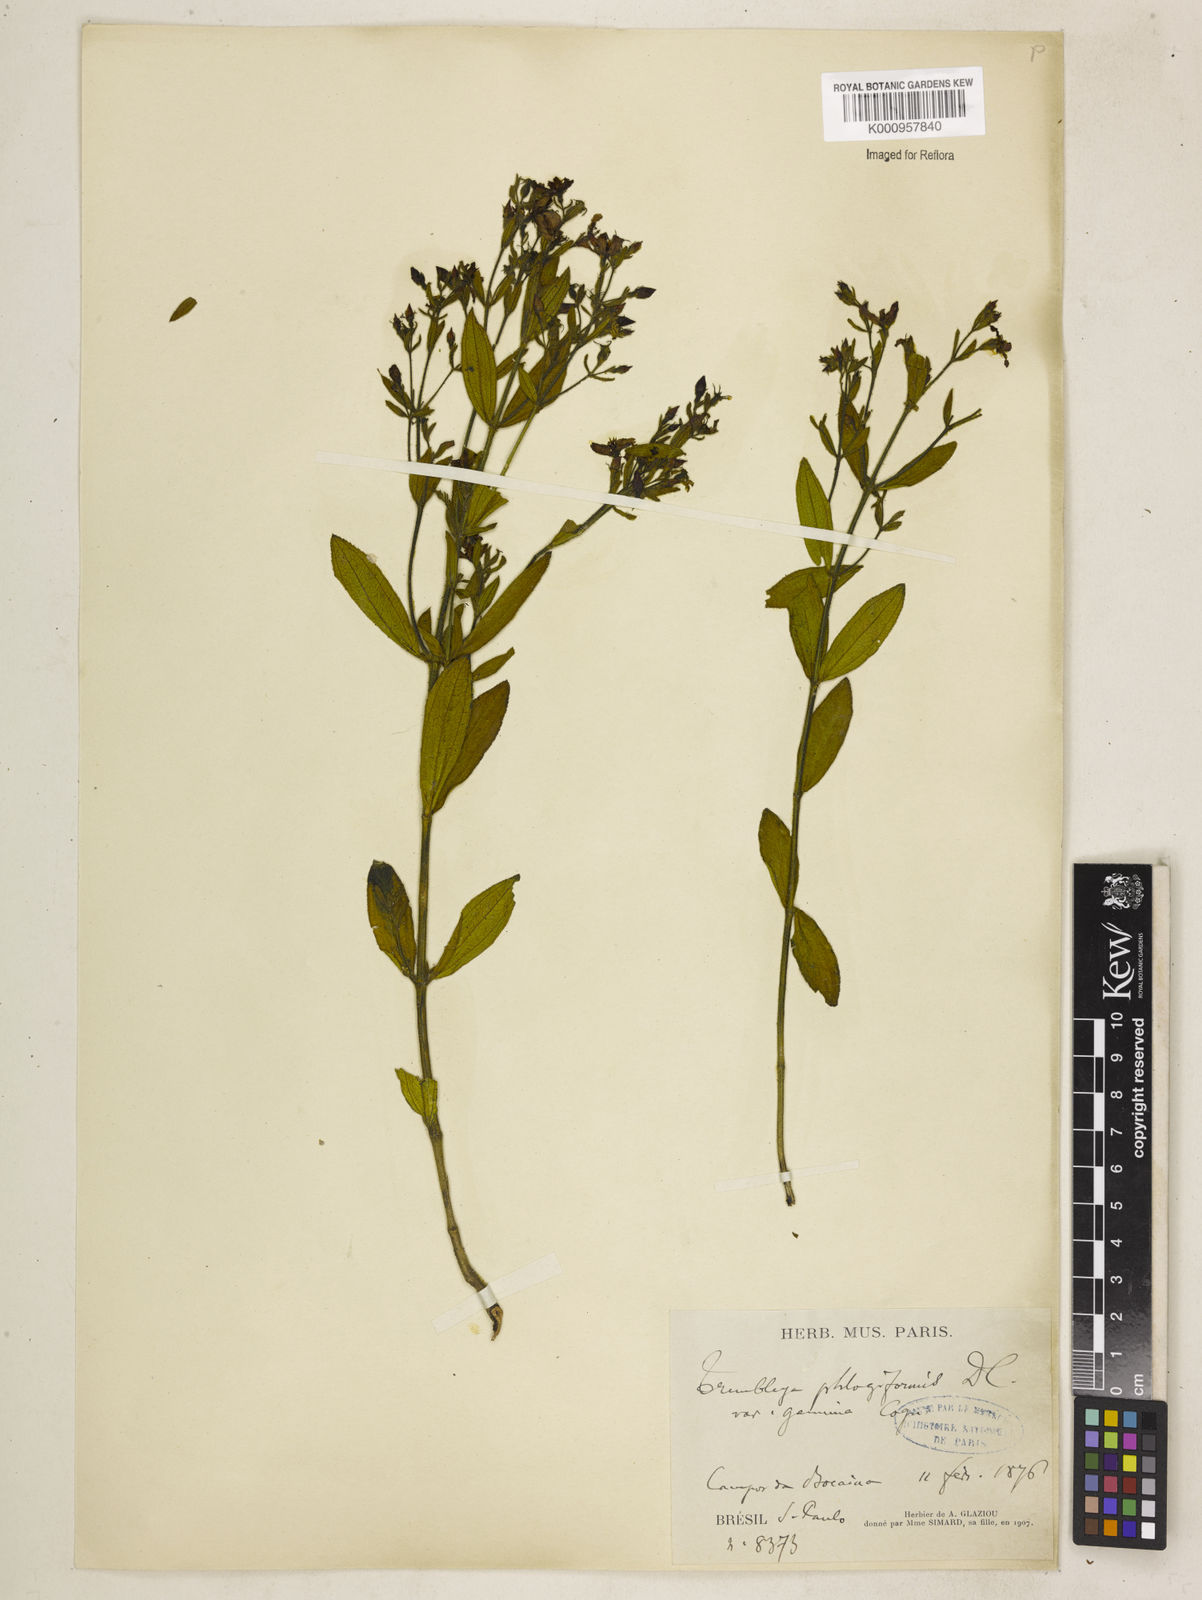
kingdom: Plantae
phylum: Tracheophyta
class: Magnoliopsida
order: Myrtales
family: Melastomataceae
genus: Microlicia
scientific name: Microlicia phlogiformis
